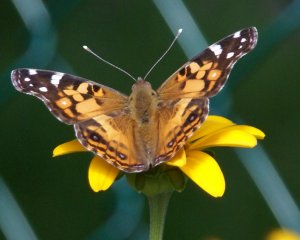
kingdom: Animalia
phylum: Arthropoda
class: Insecta
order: Lepidoptera
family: Nymphalidae
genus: Vanessa
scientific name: Vanessa virginiensis
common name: American Lady
